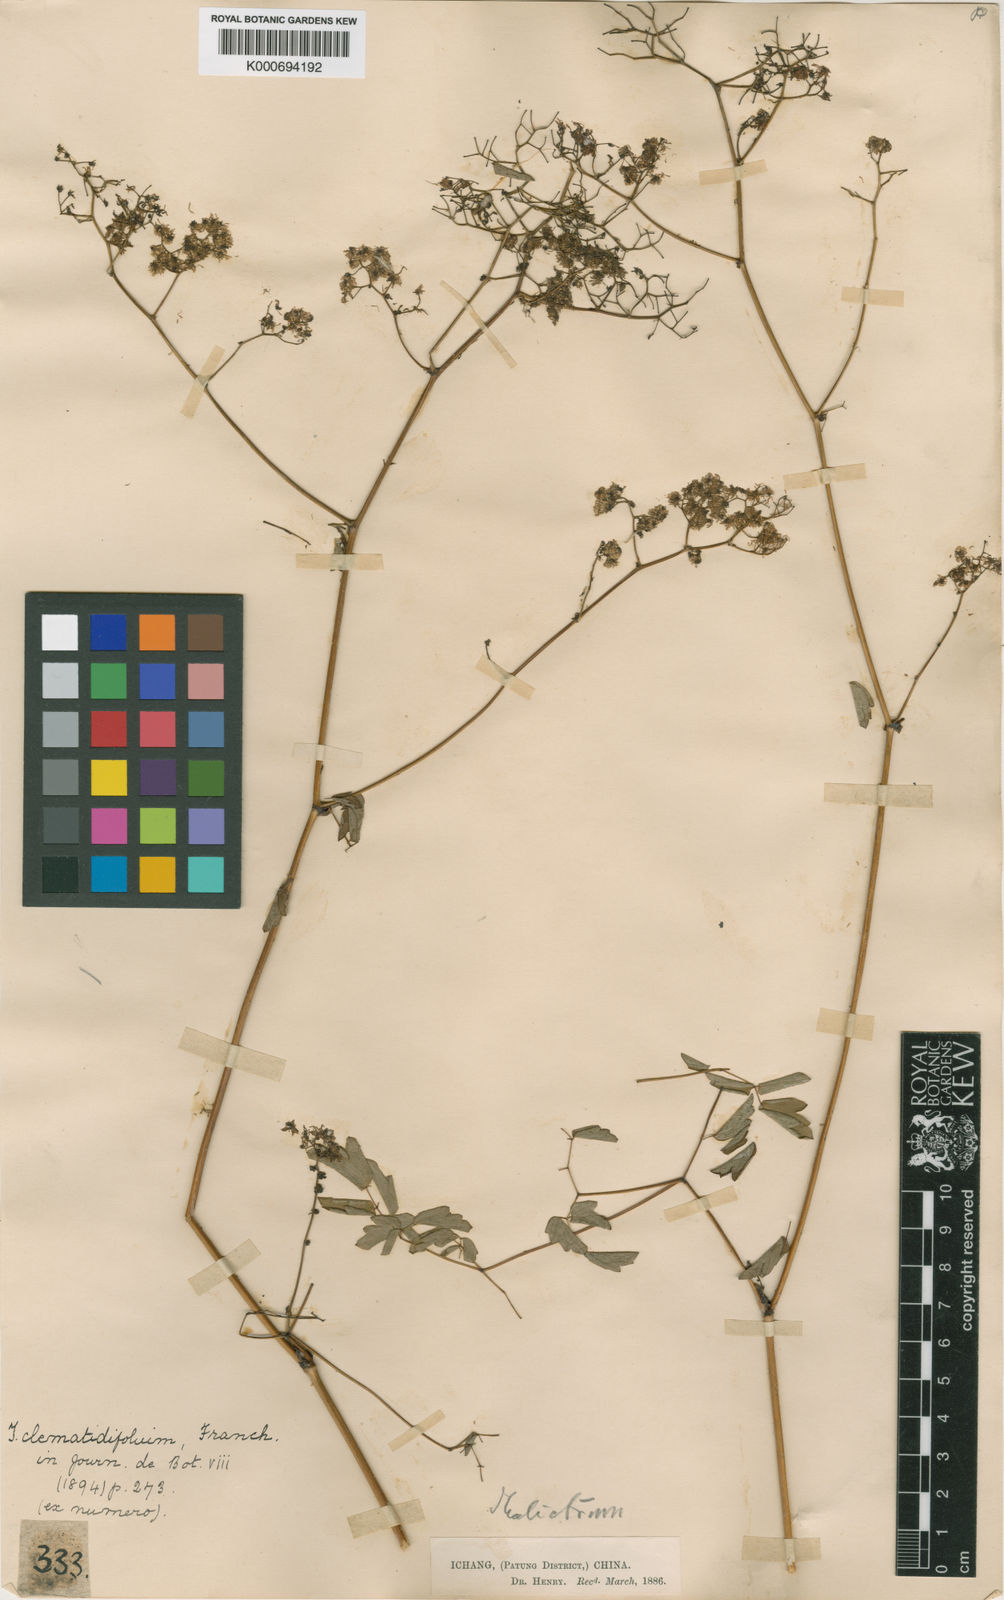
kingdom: Plantae
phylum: Tracheophyta
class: Magnoliopsida
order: Ranunculales
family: Ranunculaceae
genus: Thalictrum
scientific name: Thalictrum robustum
